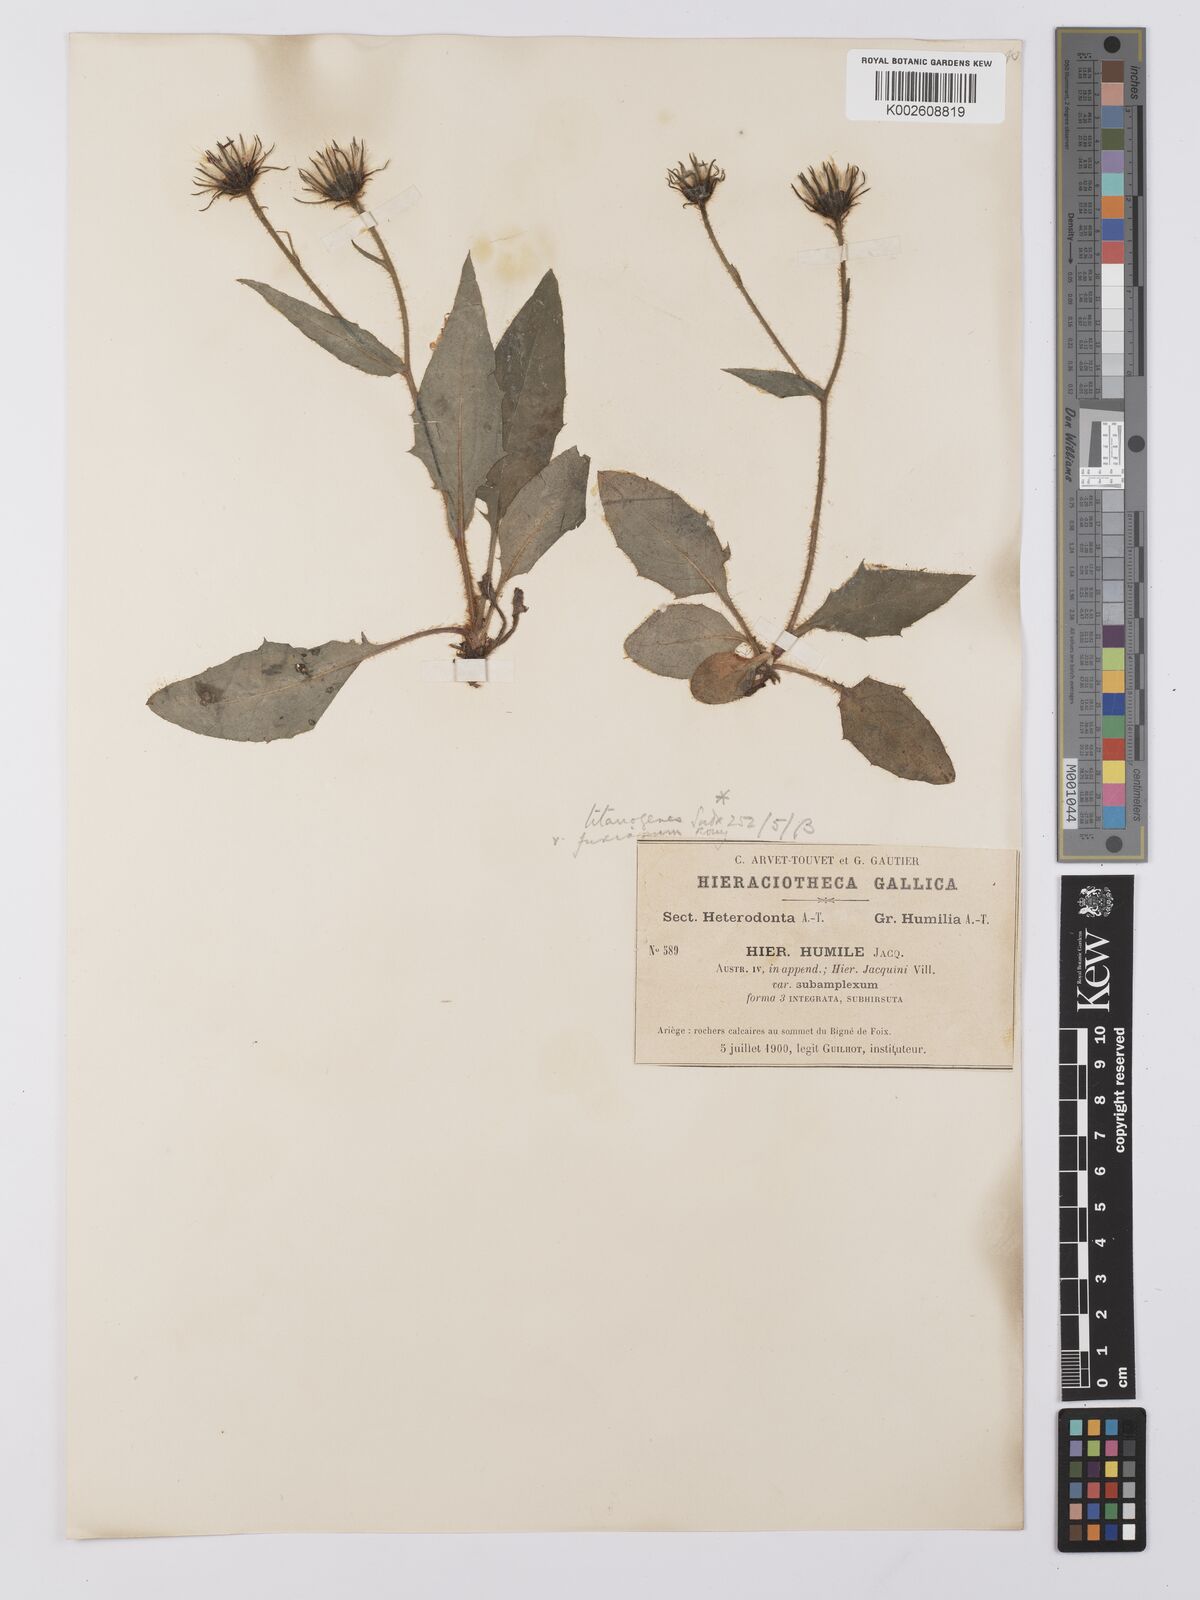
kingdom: Plantae
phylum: Tracheophyta
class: Magnoliopsida
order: Asterales
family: Asteraceae
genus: Hieracium
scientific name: Hieracium humile
